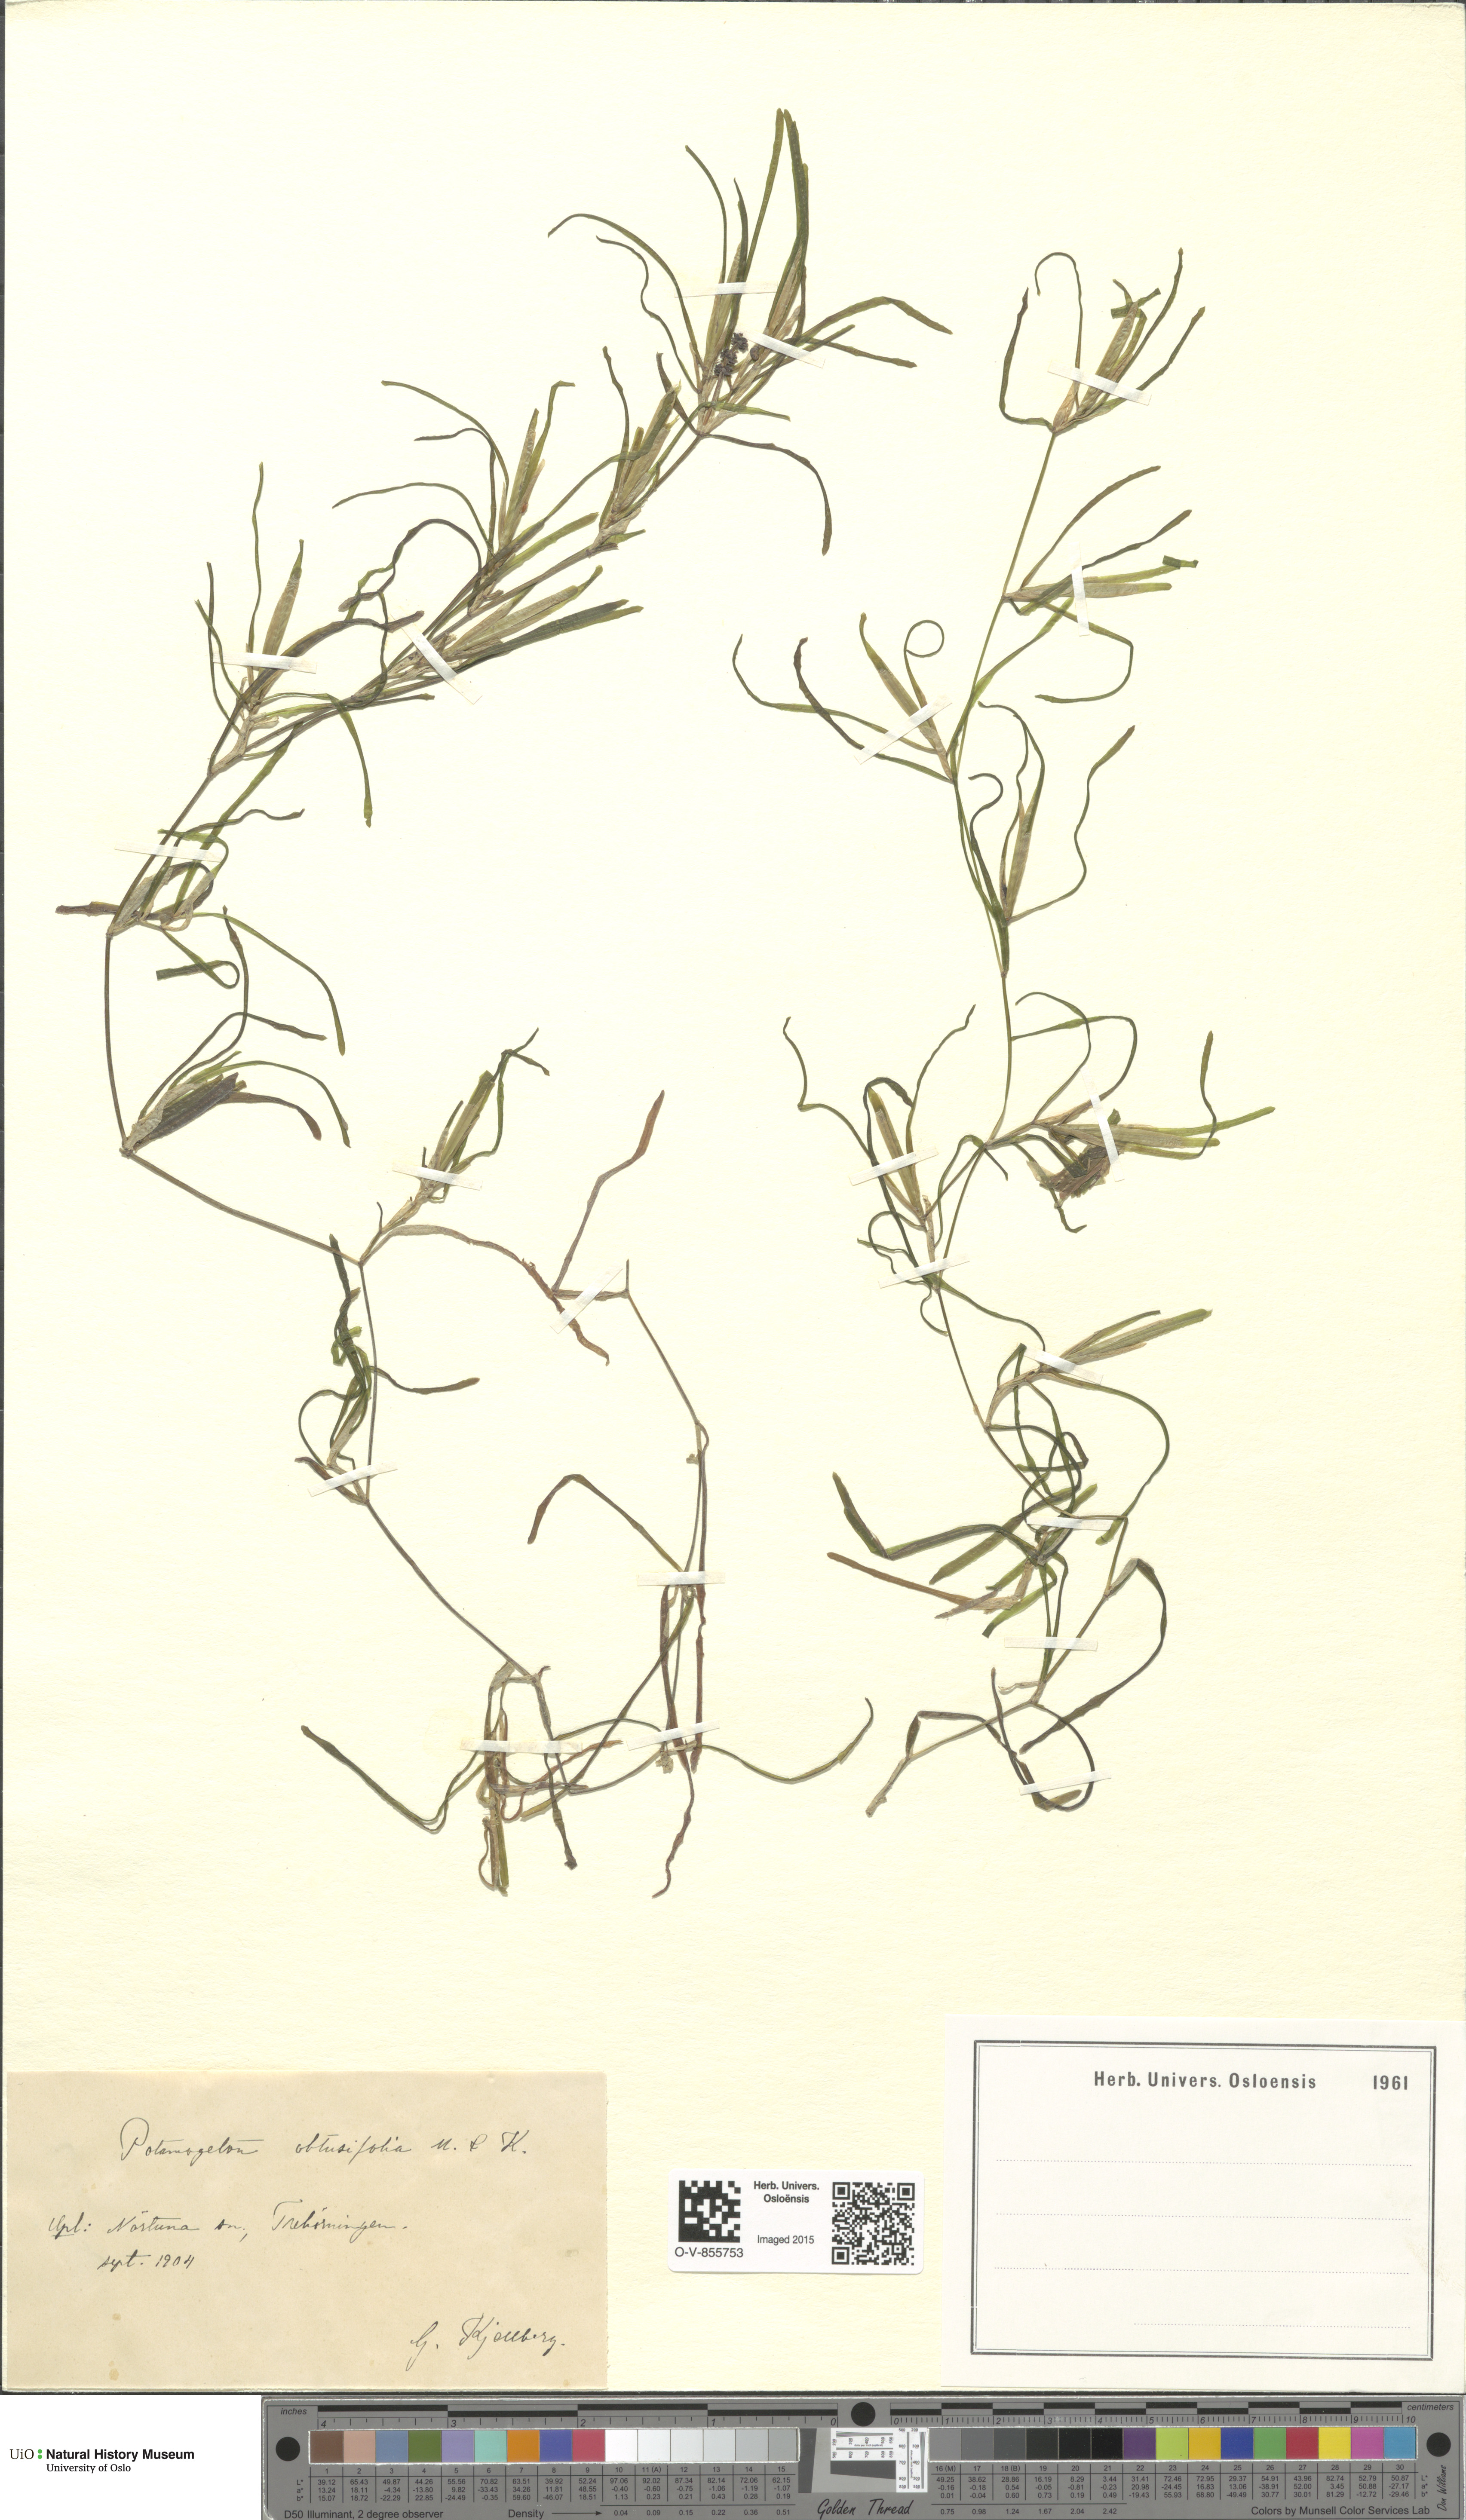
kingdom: Plantae
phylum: Tracheophyta
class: Liliopsida
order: Alismatales
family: Potamogetonaceae
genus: Potamogeton
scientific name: Potamogeton obtusifolius
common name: Blunt-leaved pondweed
